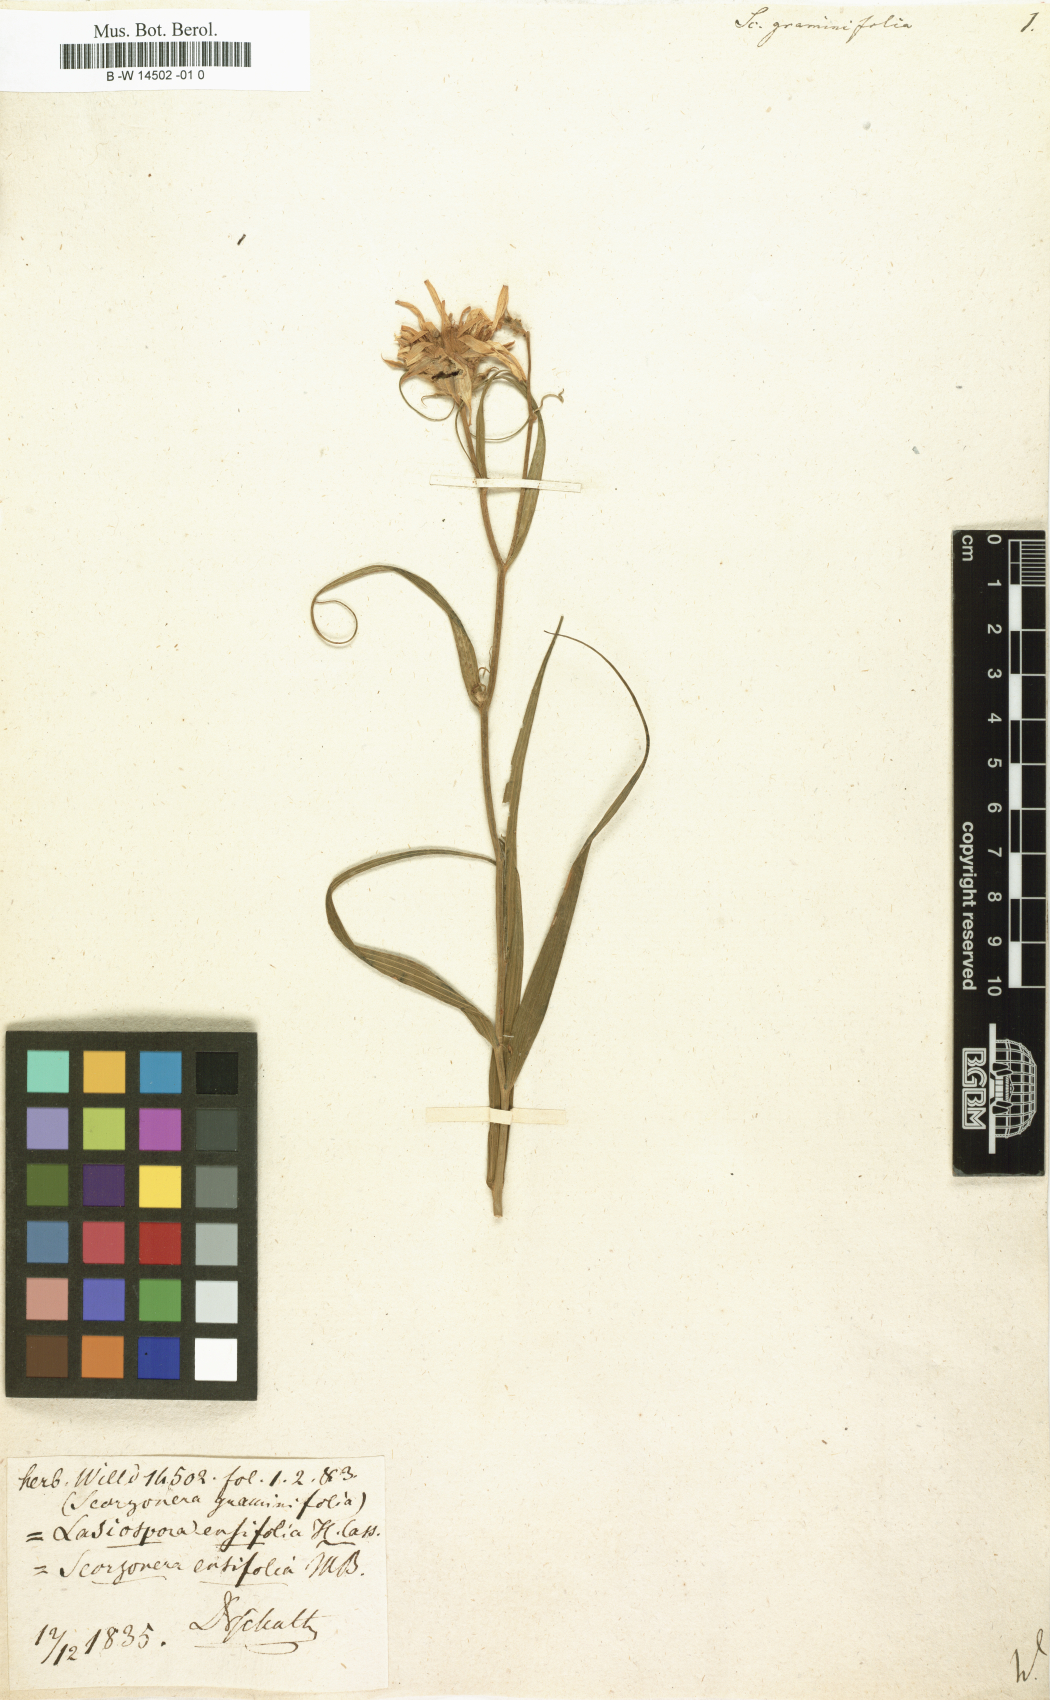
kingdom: Plantae
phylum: Tracheophyta
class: Magnoliopsida
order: Asterales
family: Asteraceae
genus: Scorzonera
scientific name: Scorzonera graminifolia
